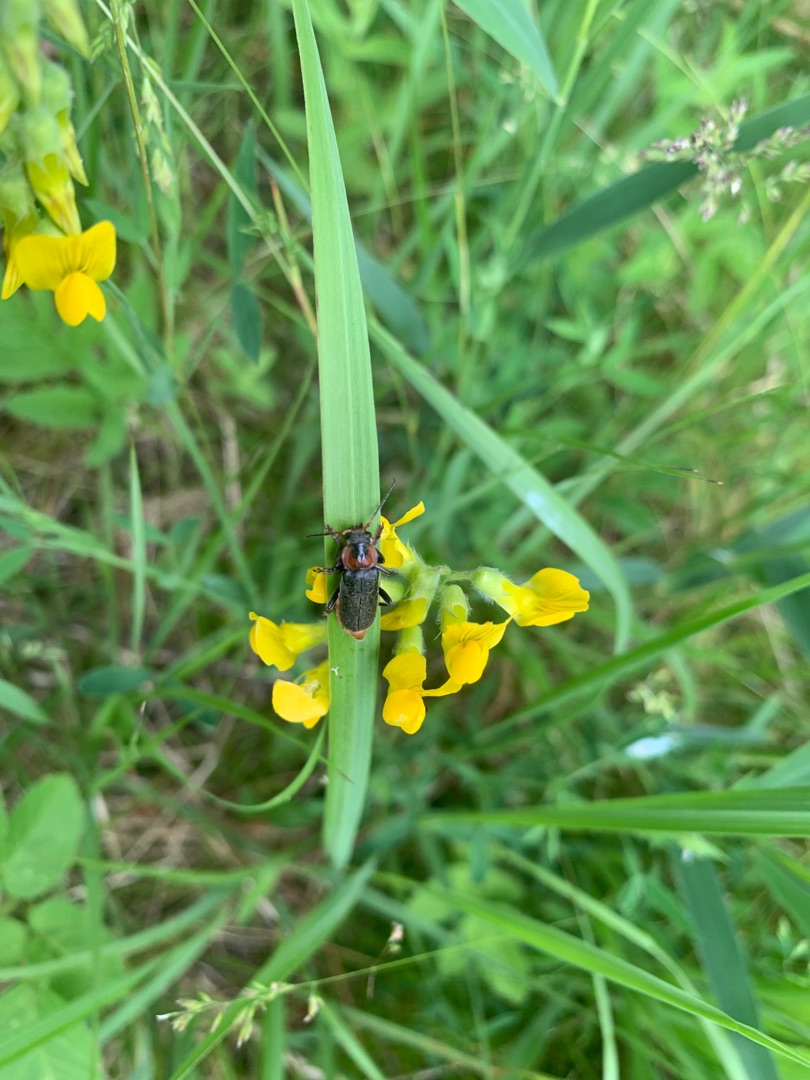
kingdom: Plantae
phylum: Tracheophyta
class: Magnoliopsida
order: Fabales
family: Fabaceae
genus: Lathyrus
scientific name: Lathyrus pratensis
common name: Gul fladbælg
